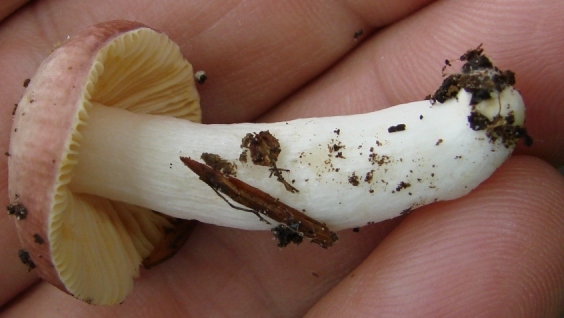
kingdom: Fungi
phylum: Basidiomycota
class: Agaricomycetes
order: Russulales
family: Russulaceae
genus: Russula
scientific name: Russula risigallina
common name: abrikos-skørhat
